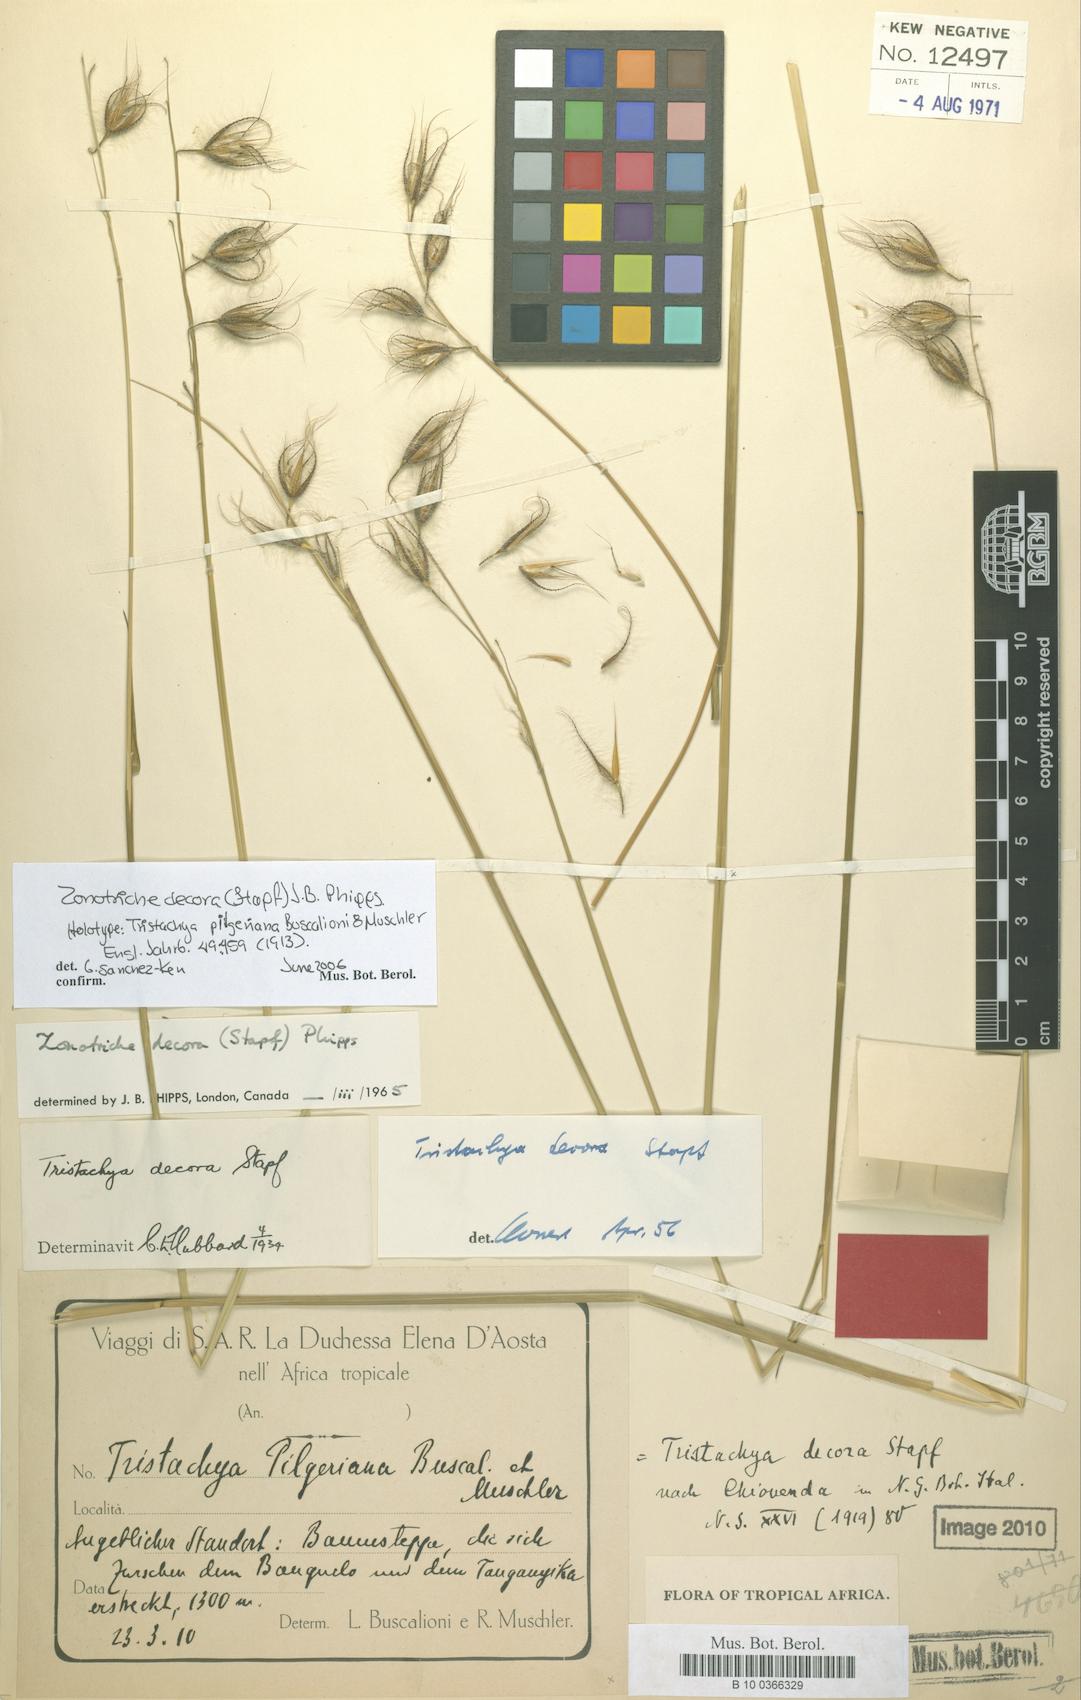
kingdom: Plantae
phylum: Tracheophyta
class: Liliopsida
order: Poales
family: Poaceae
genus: Zonotriche
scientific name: Zonotriche decora
